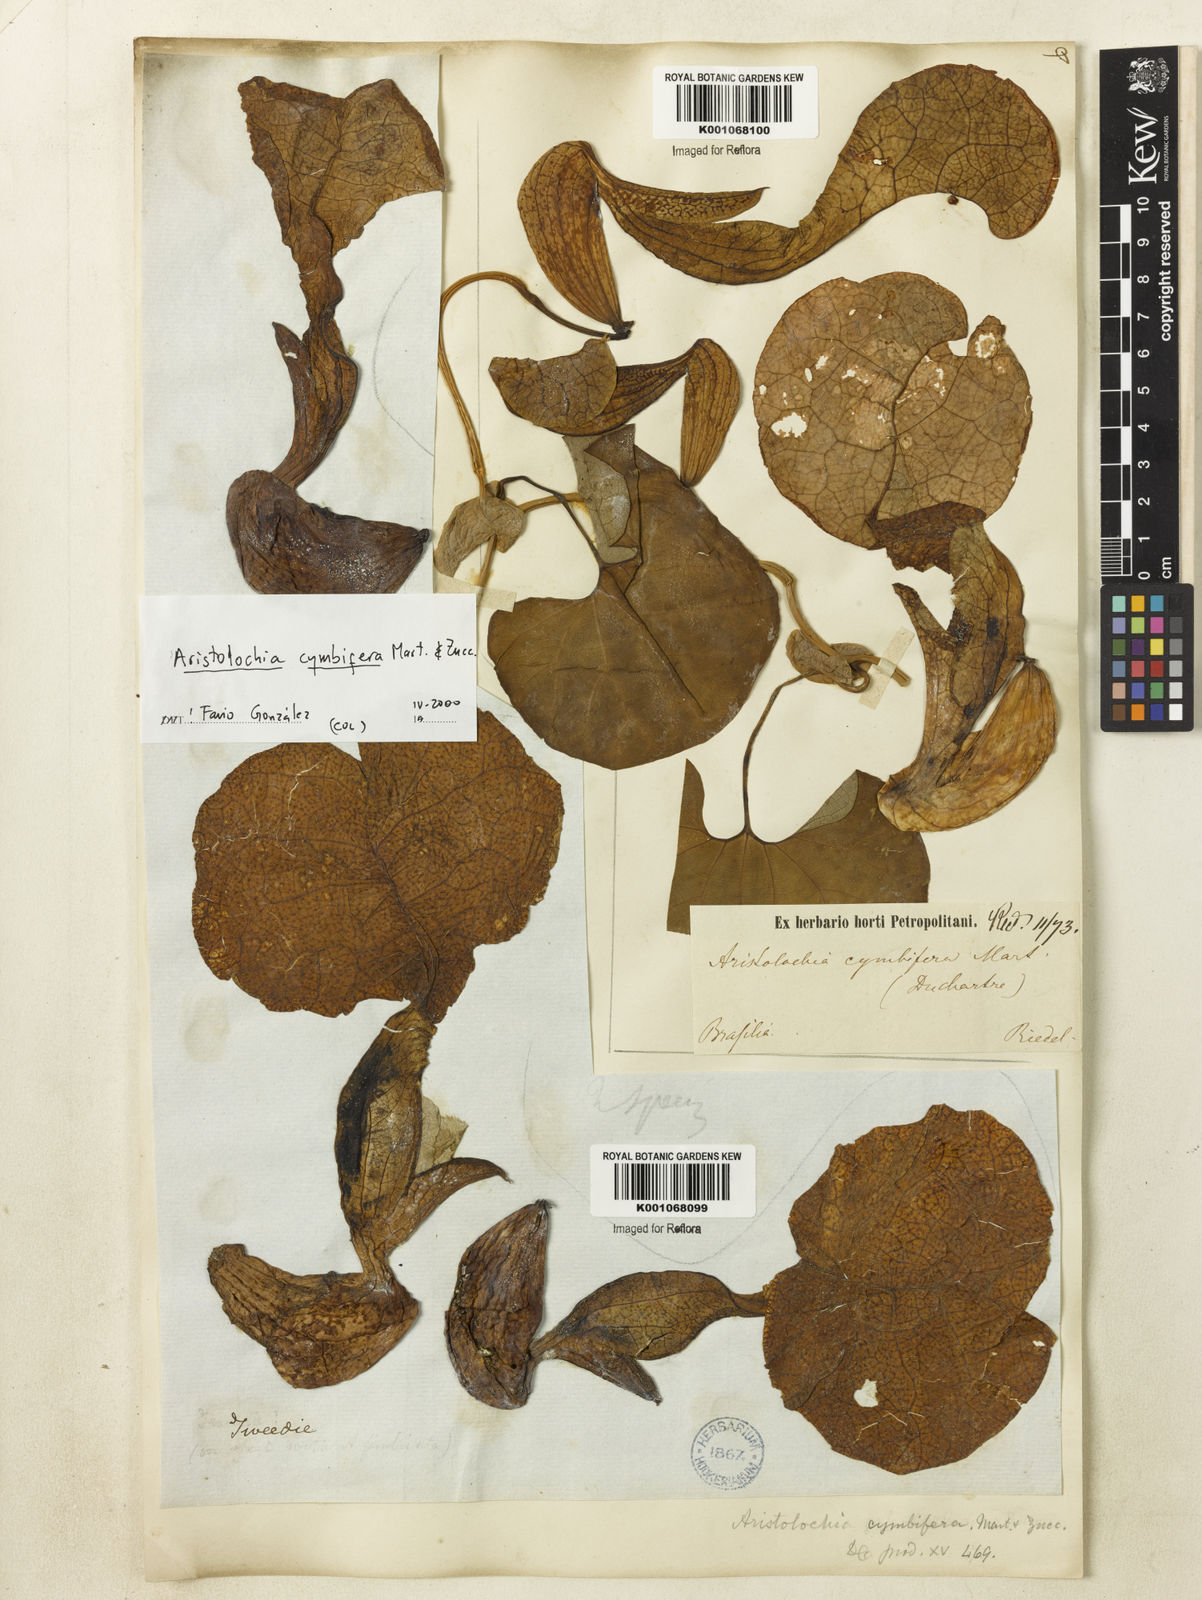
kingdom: Plantae
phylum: Tracheophyta
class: Magnoliopsida
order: Piperales
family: Aristolochiaceae
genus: Aristolochia
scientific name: Aristolochia cymbifera
